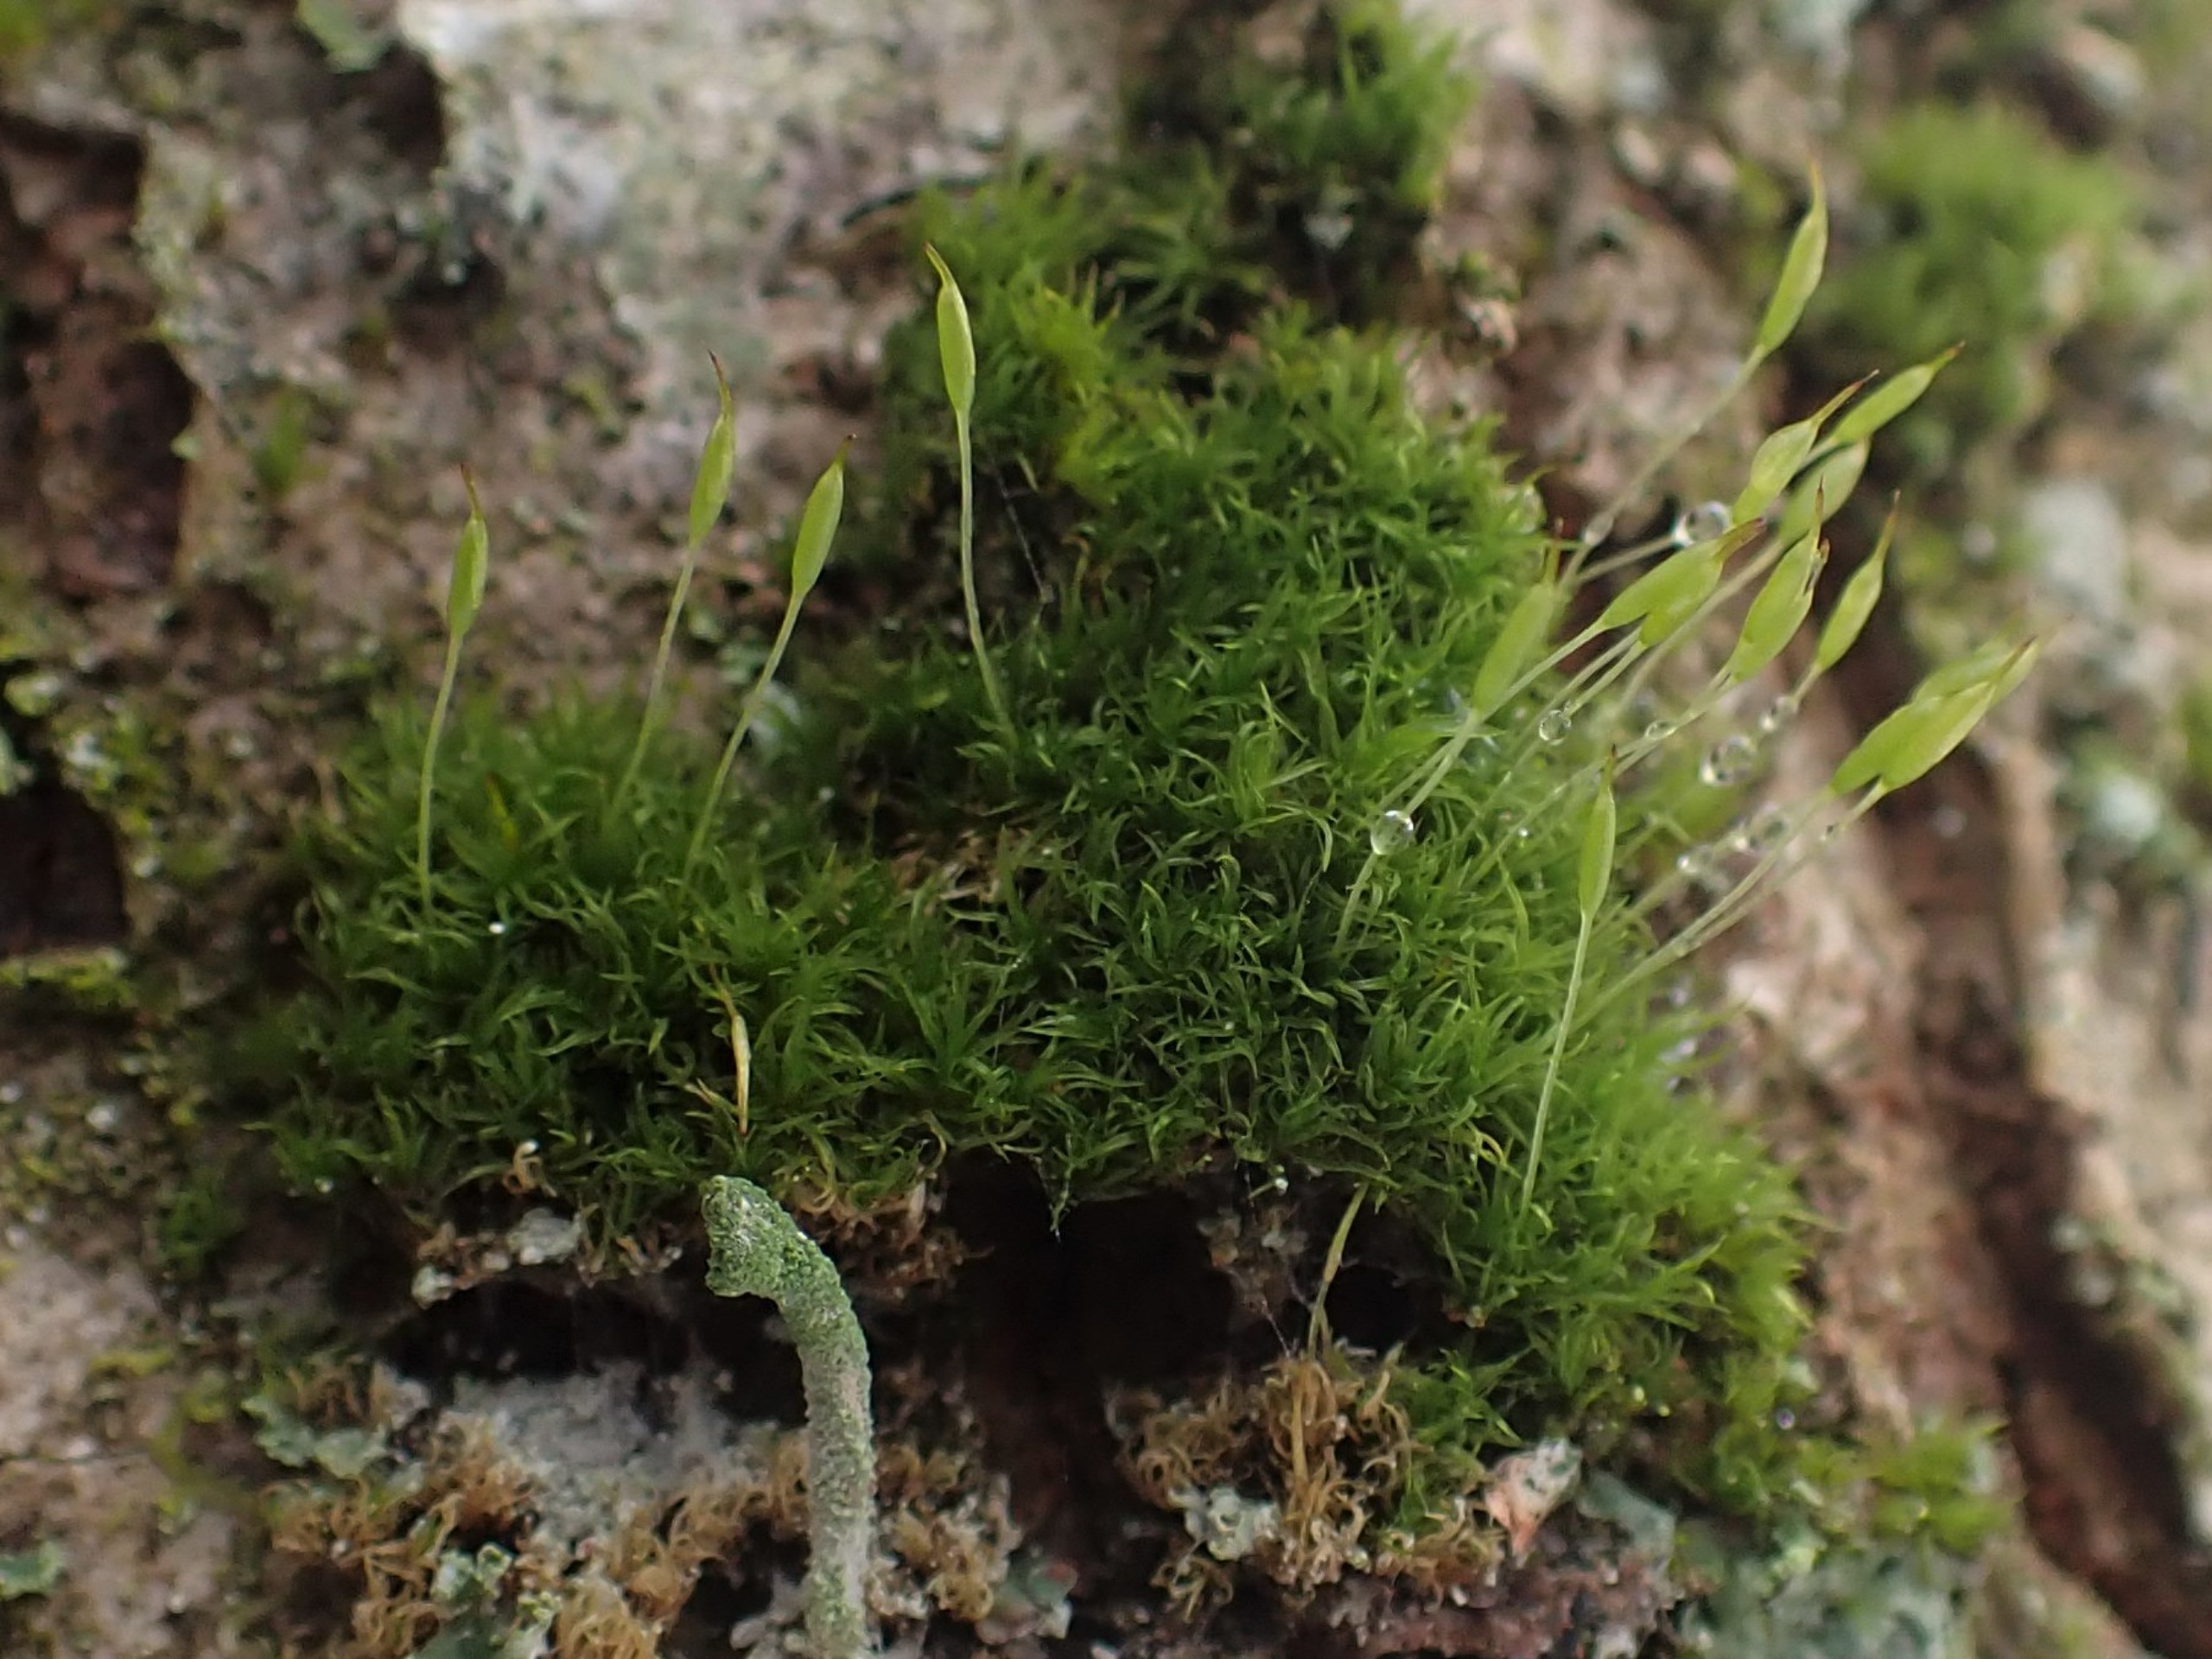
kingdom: Plantae
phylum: Bryophyta
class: Bryopsida
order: Dicranales
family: Rhabdoweisiaceae
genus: Dicranoweisia
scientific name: Dicranoweisia cirrata
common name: Almindelig krøltuemos
